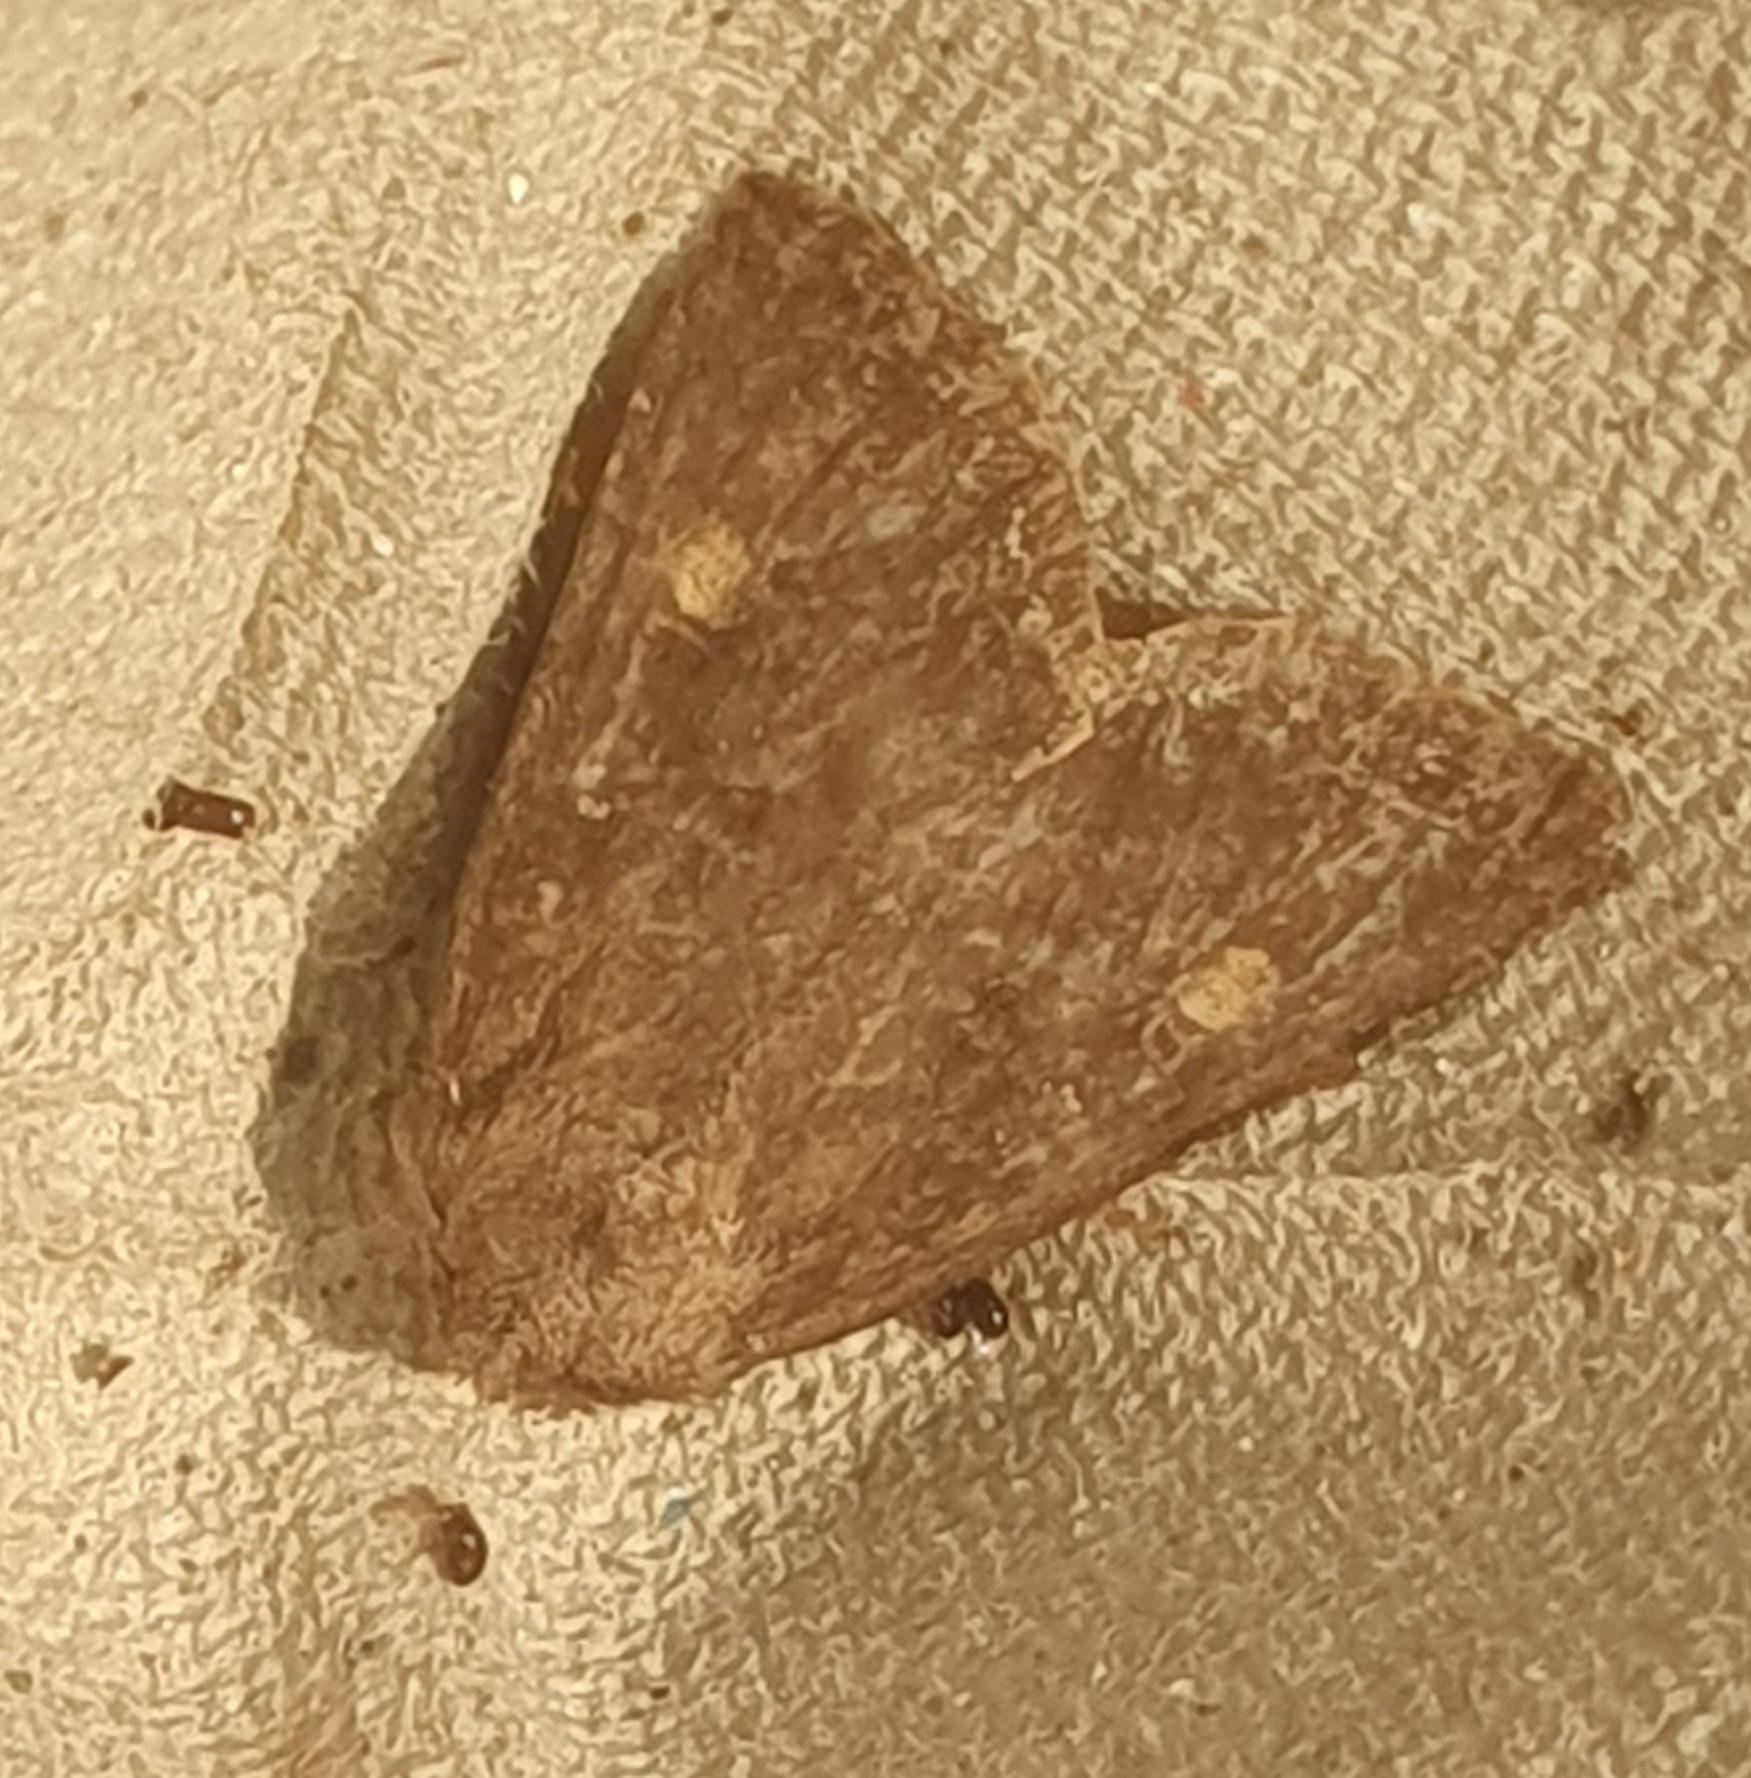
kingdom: Animalia
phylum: Arthropoda
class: Insecta
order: Lepidoptera
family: Noctuidae
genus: Lacanobia
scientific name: Lacanobia oleracea
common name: Haveugle
